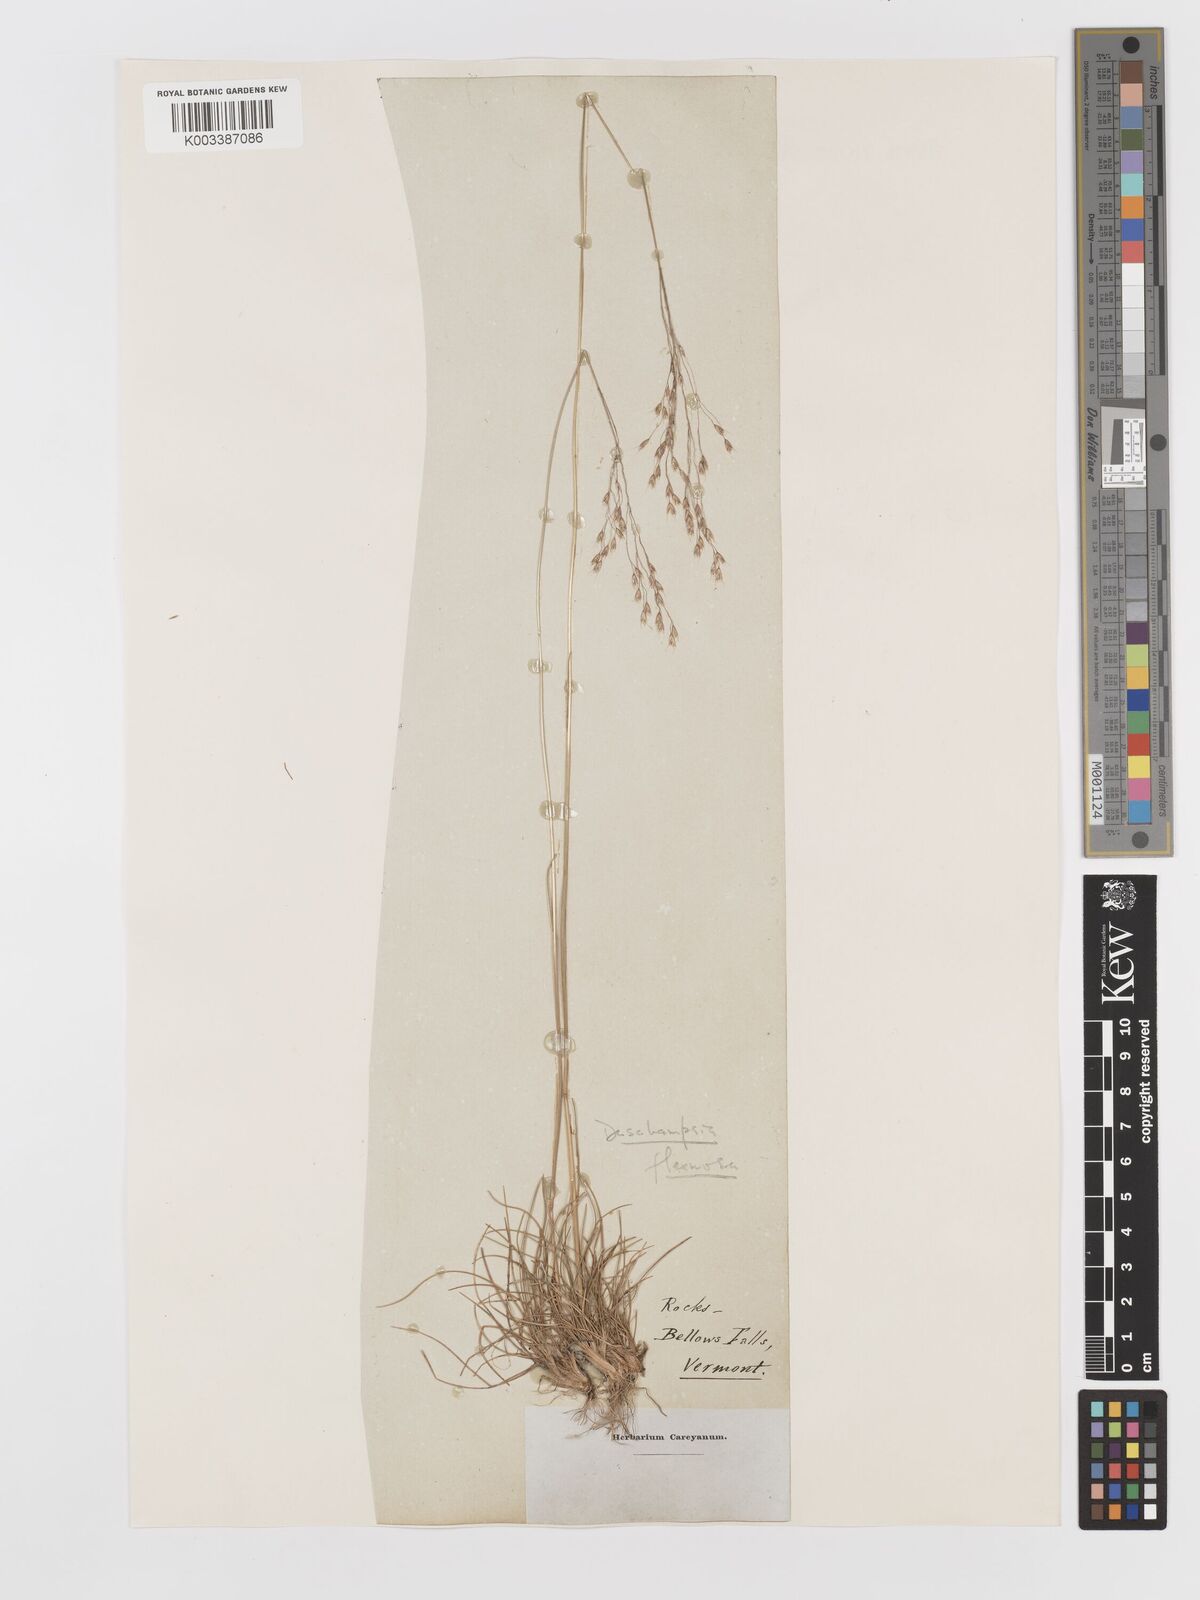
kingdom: Plantae
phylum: Tracheophyta
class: Liliopsida
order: Poales
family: Poaceae
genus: Avenella
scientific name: Avenella flexuosa
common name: Wavy hairgrass
